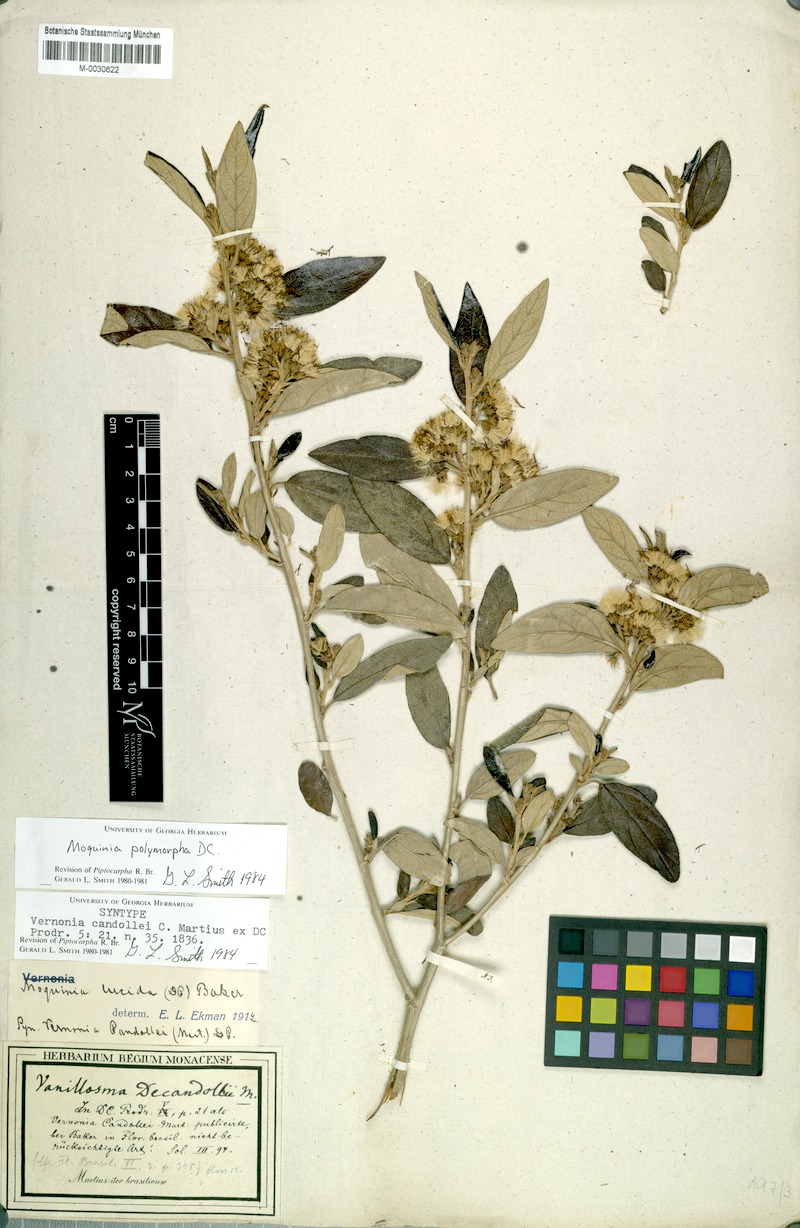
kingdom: Plantae
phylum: Tracheophyta
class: Magnoliopsida
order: Asterales
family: Asteraceae
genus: Moquiniastrum
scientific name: Moquiniastrum polymorphum
